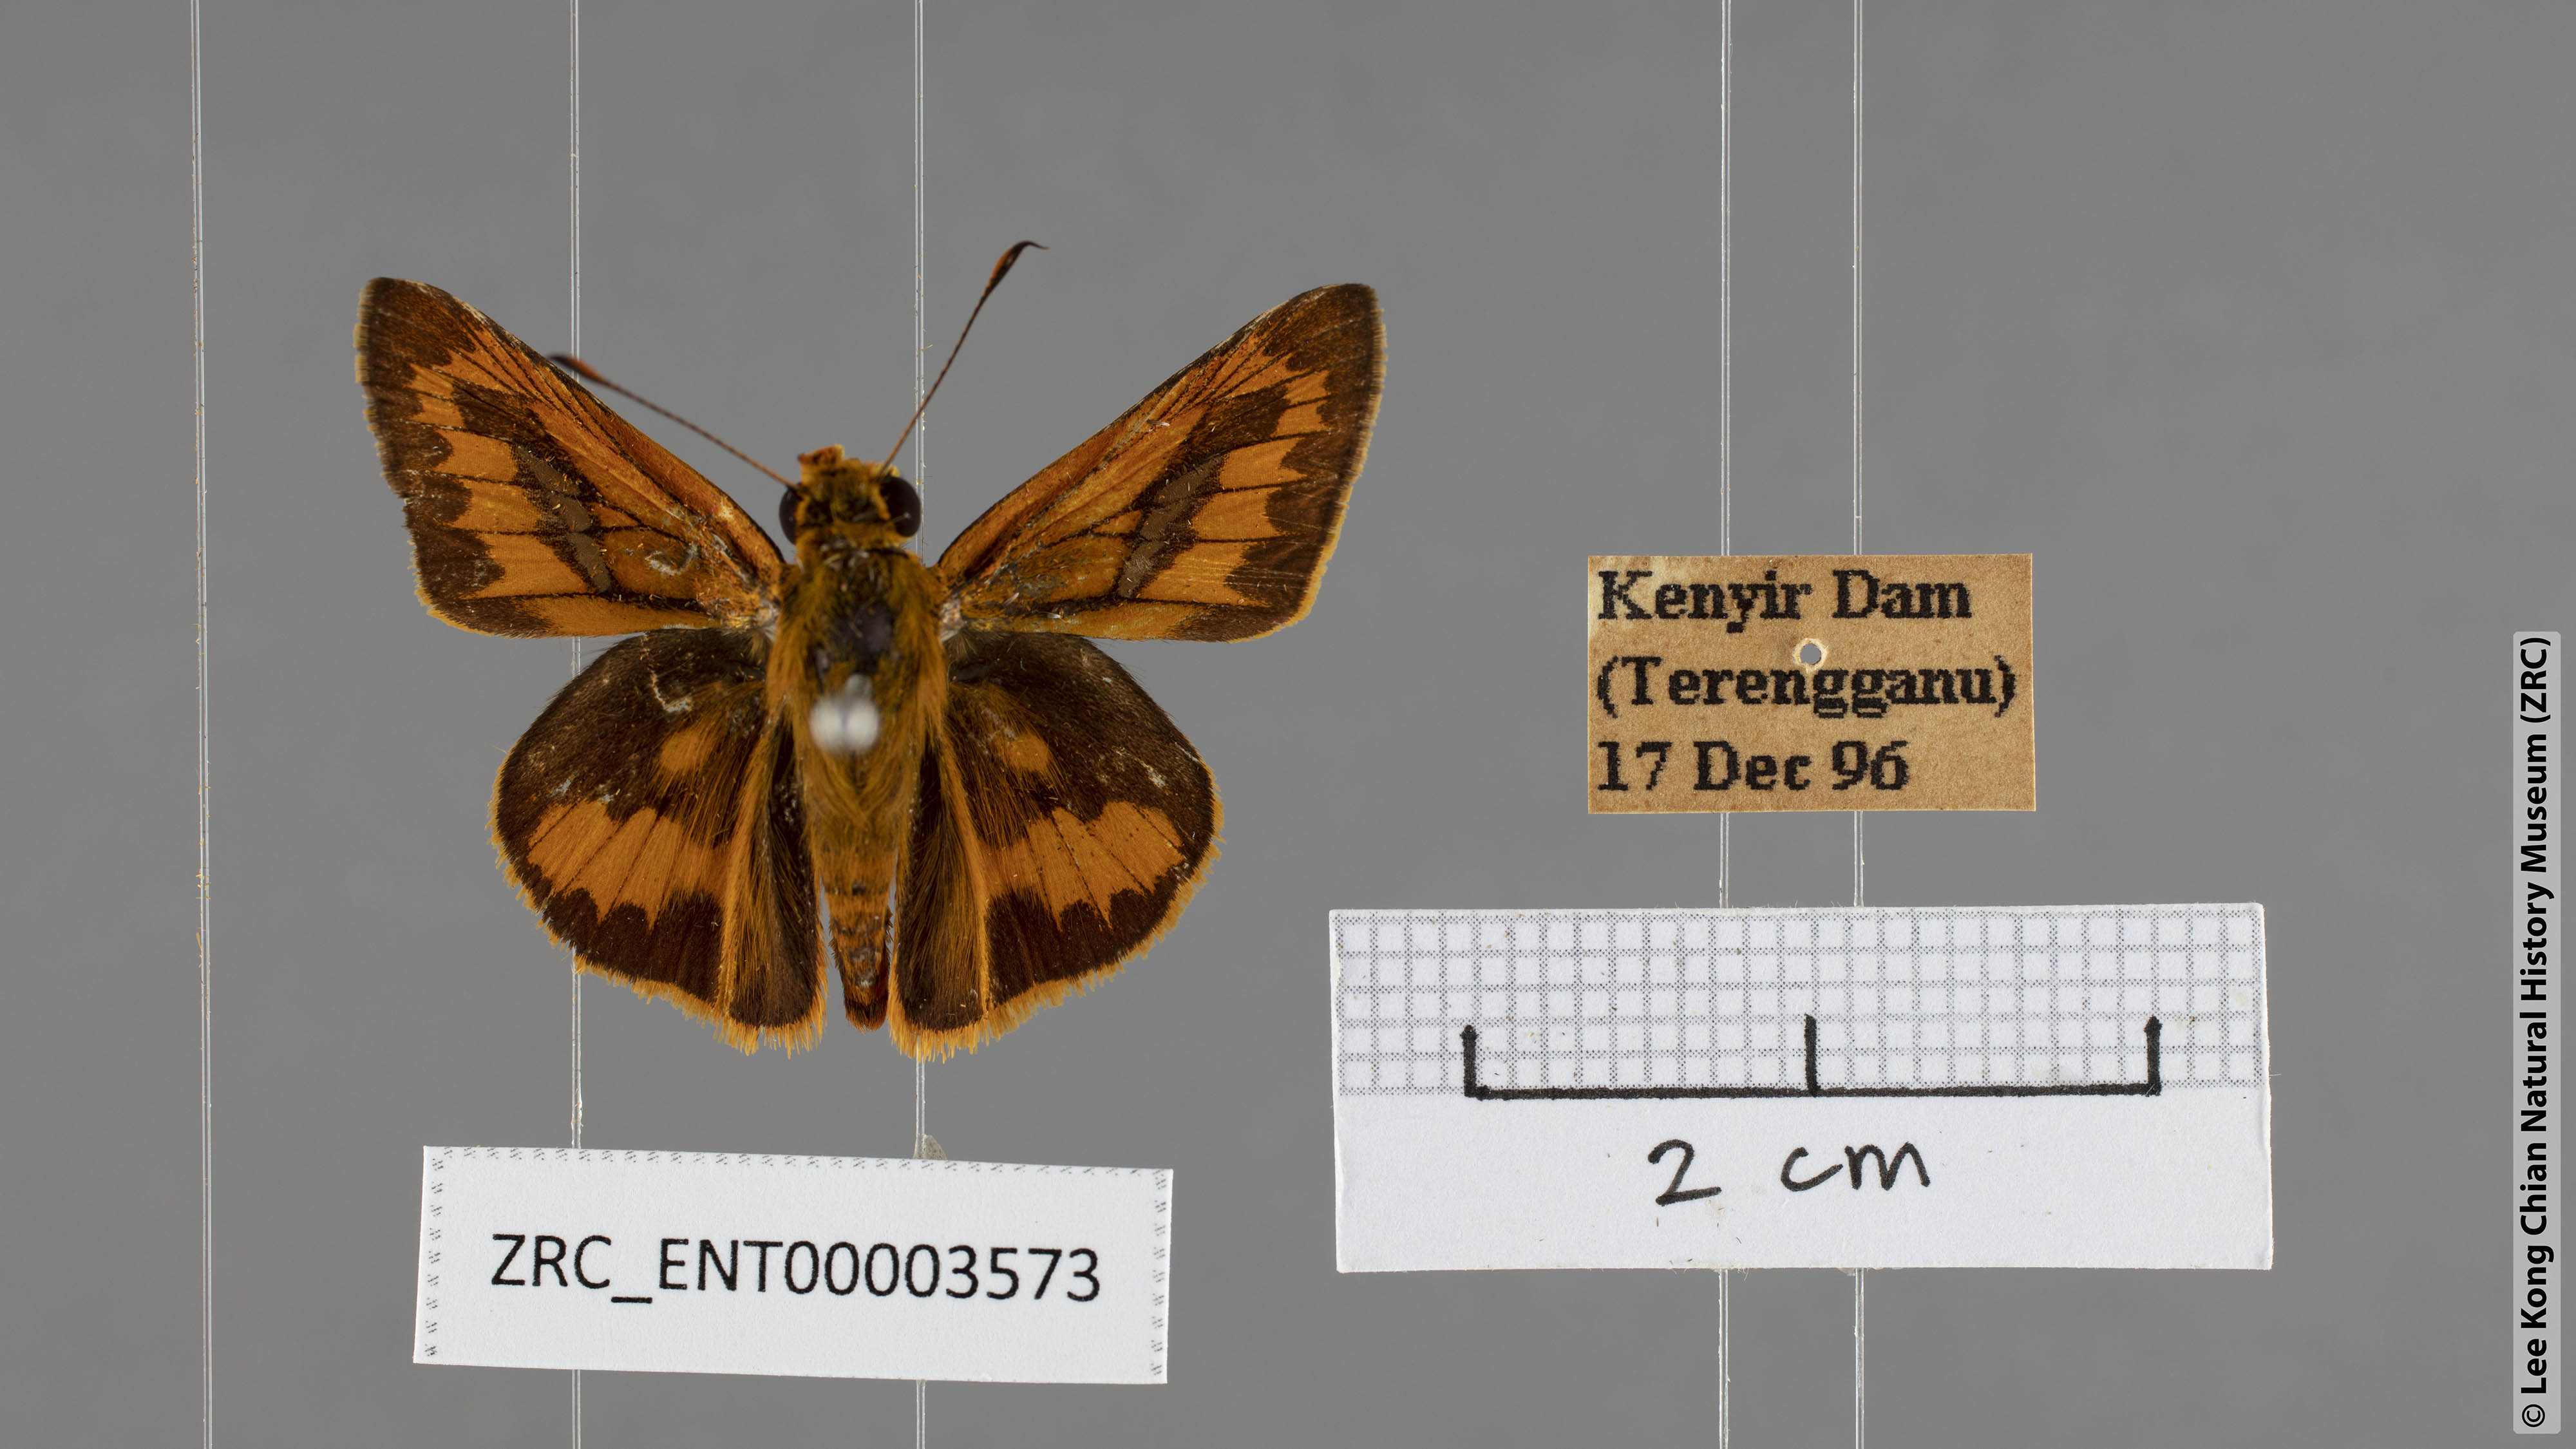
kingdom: Animalia
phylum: Arthropoda
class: Insecta
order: Lepidoptera
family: Hesperiidae
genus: Telicota
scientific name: Telicota augias
